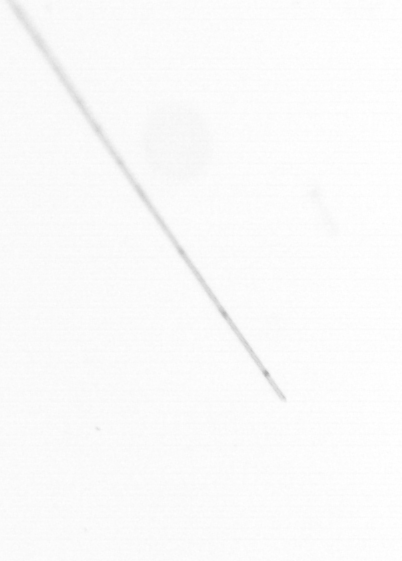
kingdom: Chromista
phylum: Ochrophyta
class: Bacillariophyceae
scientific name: Bacillariophyceae
